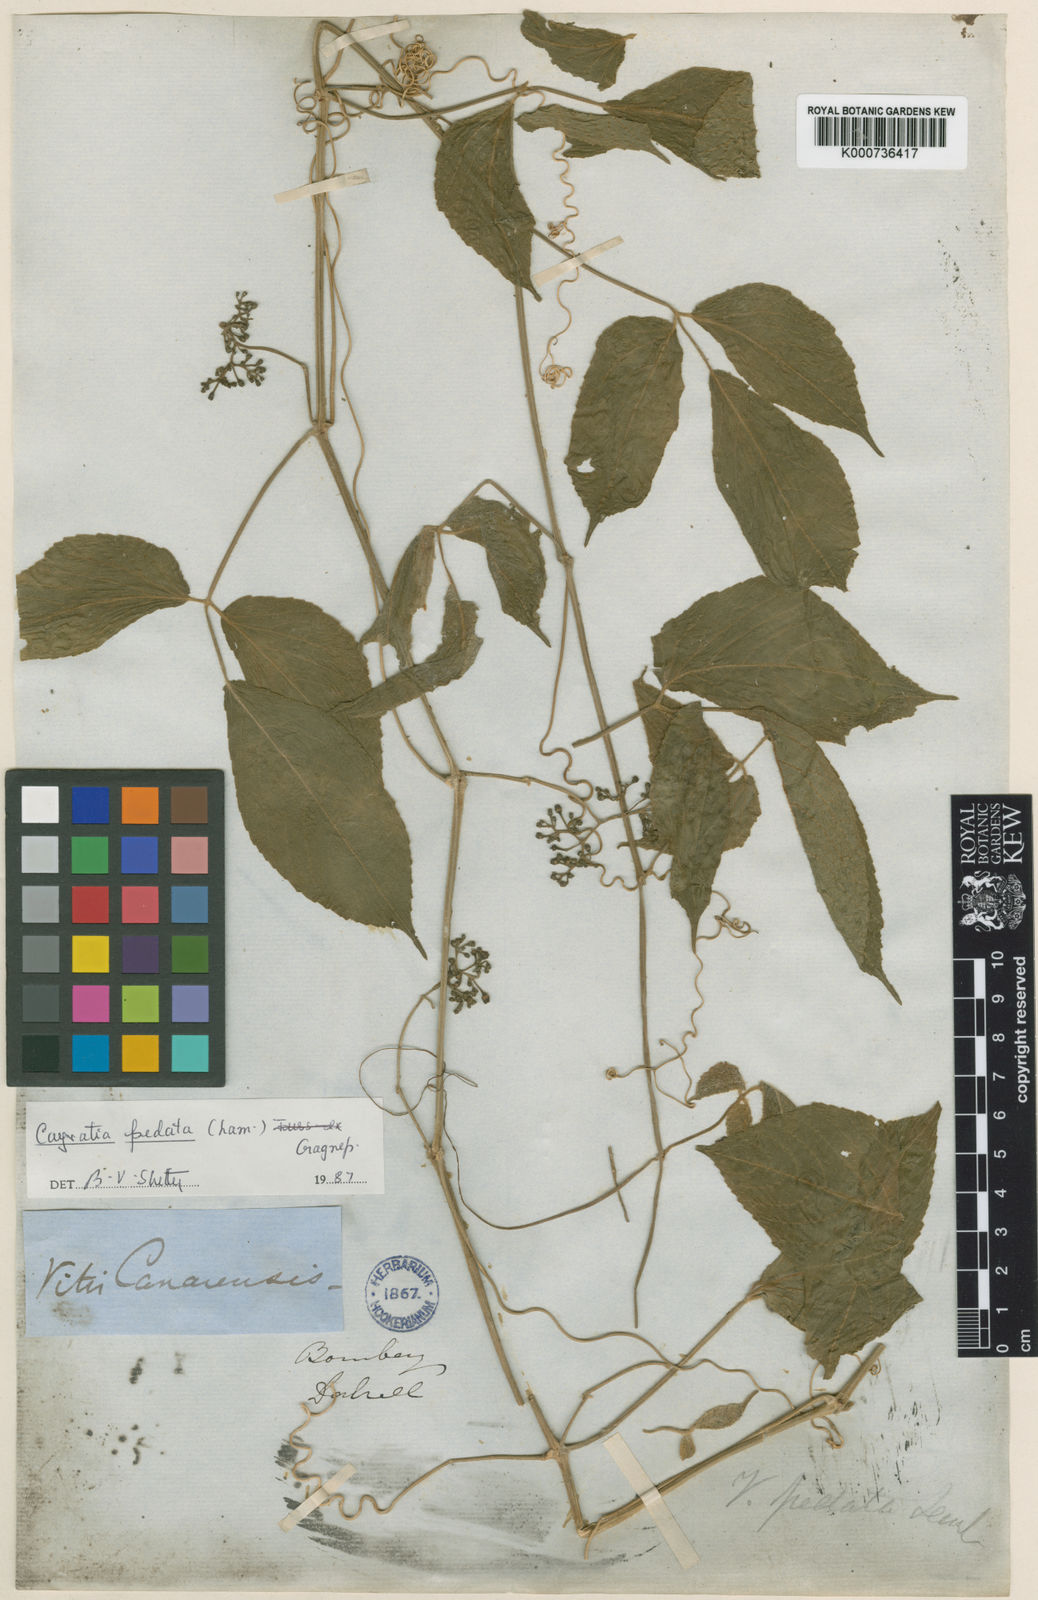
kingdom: Plantae
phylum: Tracheophyta
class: Magnoliopsida
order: Vitales
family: Vitaceae
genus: Cayratia
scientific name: Cayratia pedata
